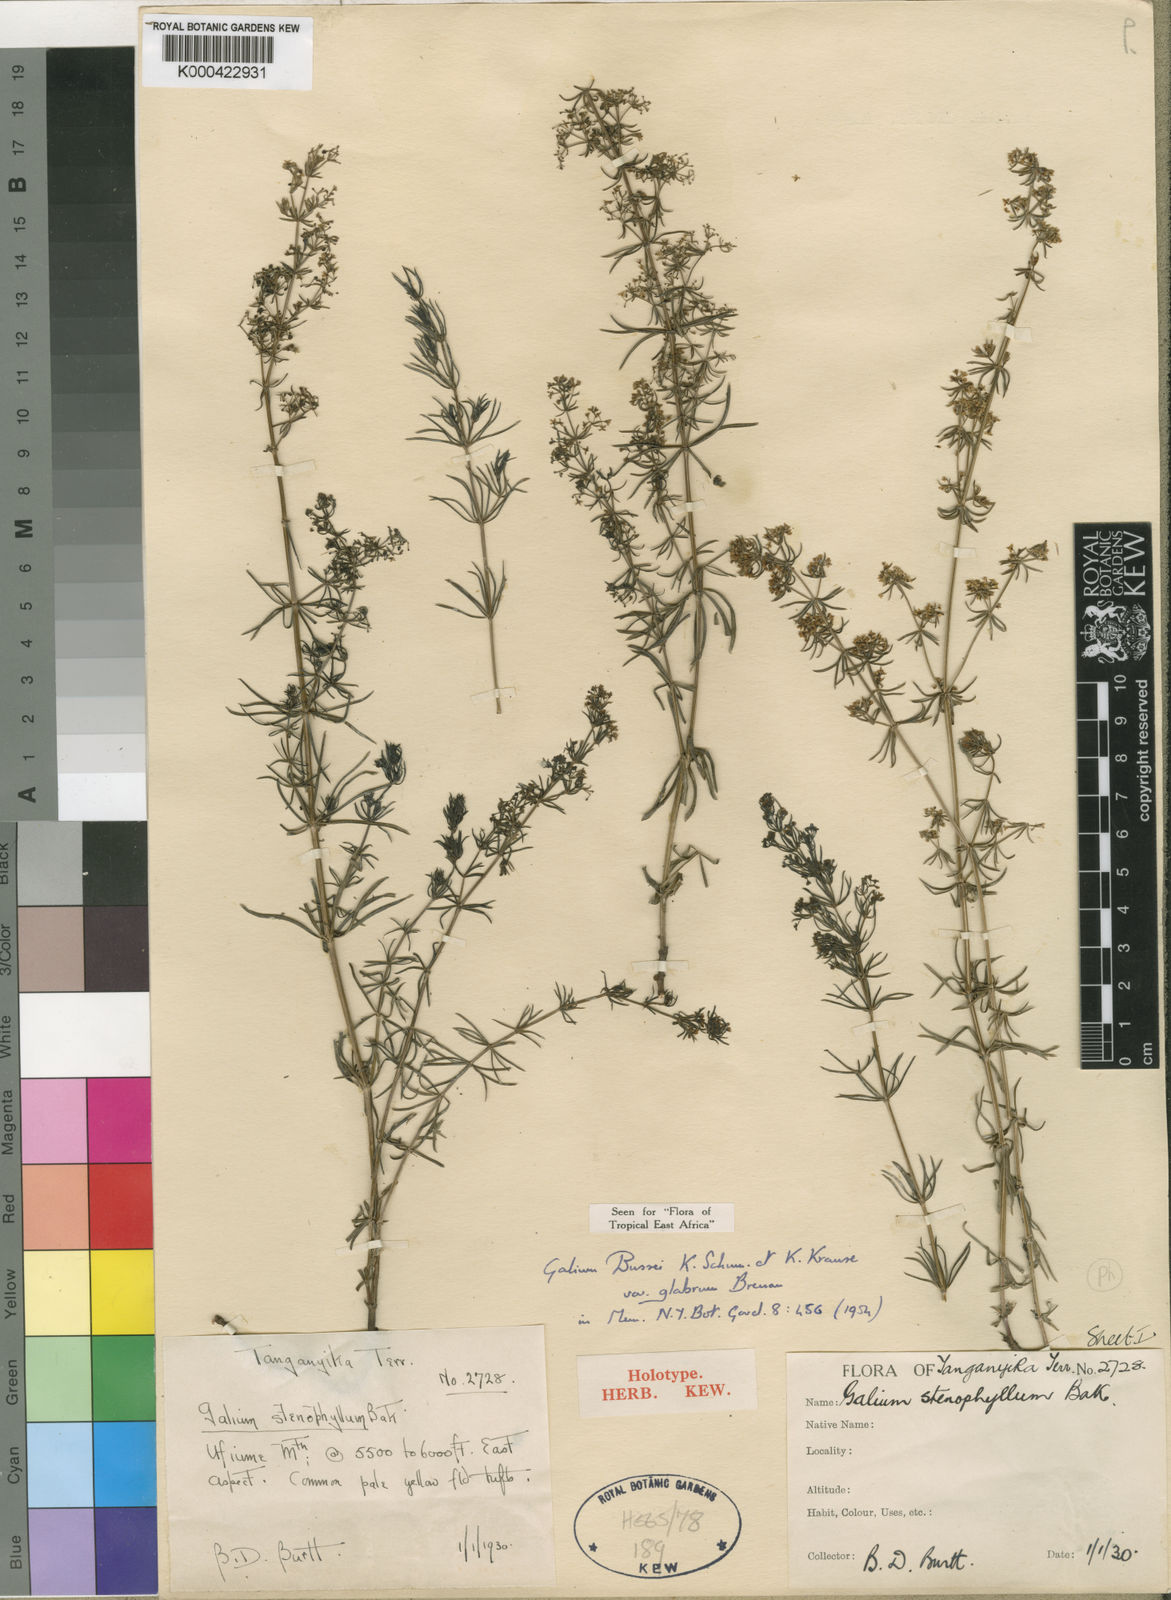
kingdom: Plantae
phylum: Tracheophyta
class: Magnoliopsida
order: Gentianales
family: Rubiaceae
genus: Galium
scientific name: Galium bussei
